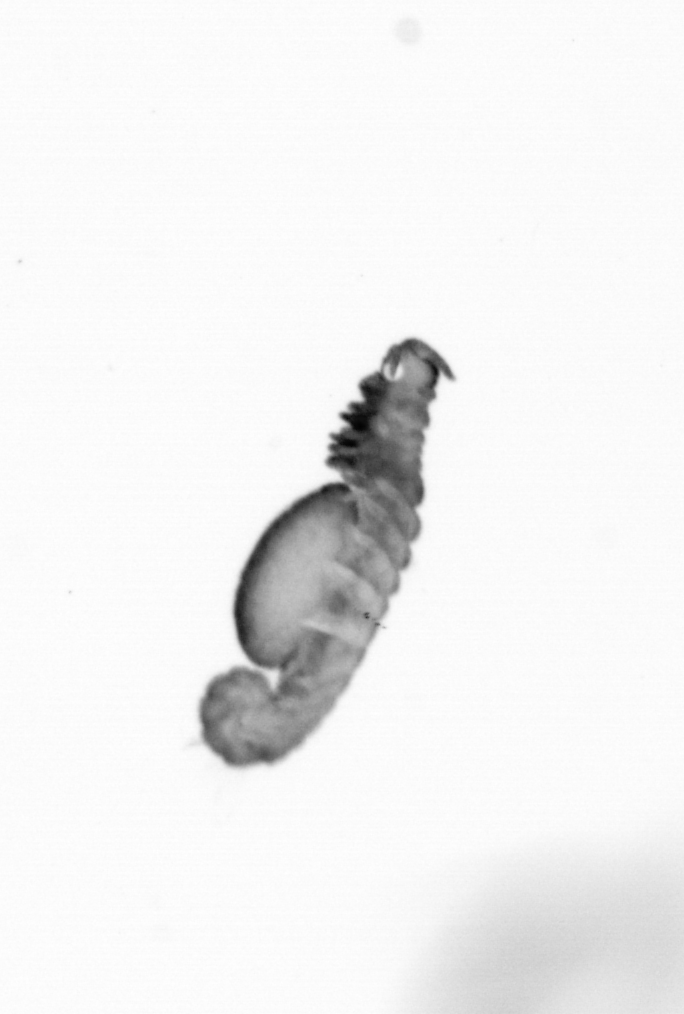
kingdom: Animalia
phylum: Annelida
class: Polychaeta
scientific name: Polychaeta
